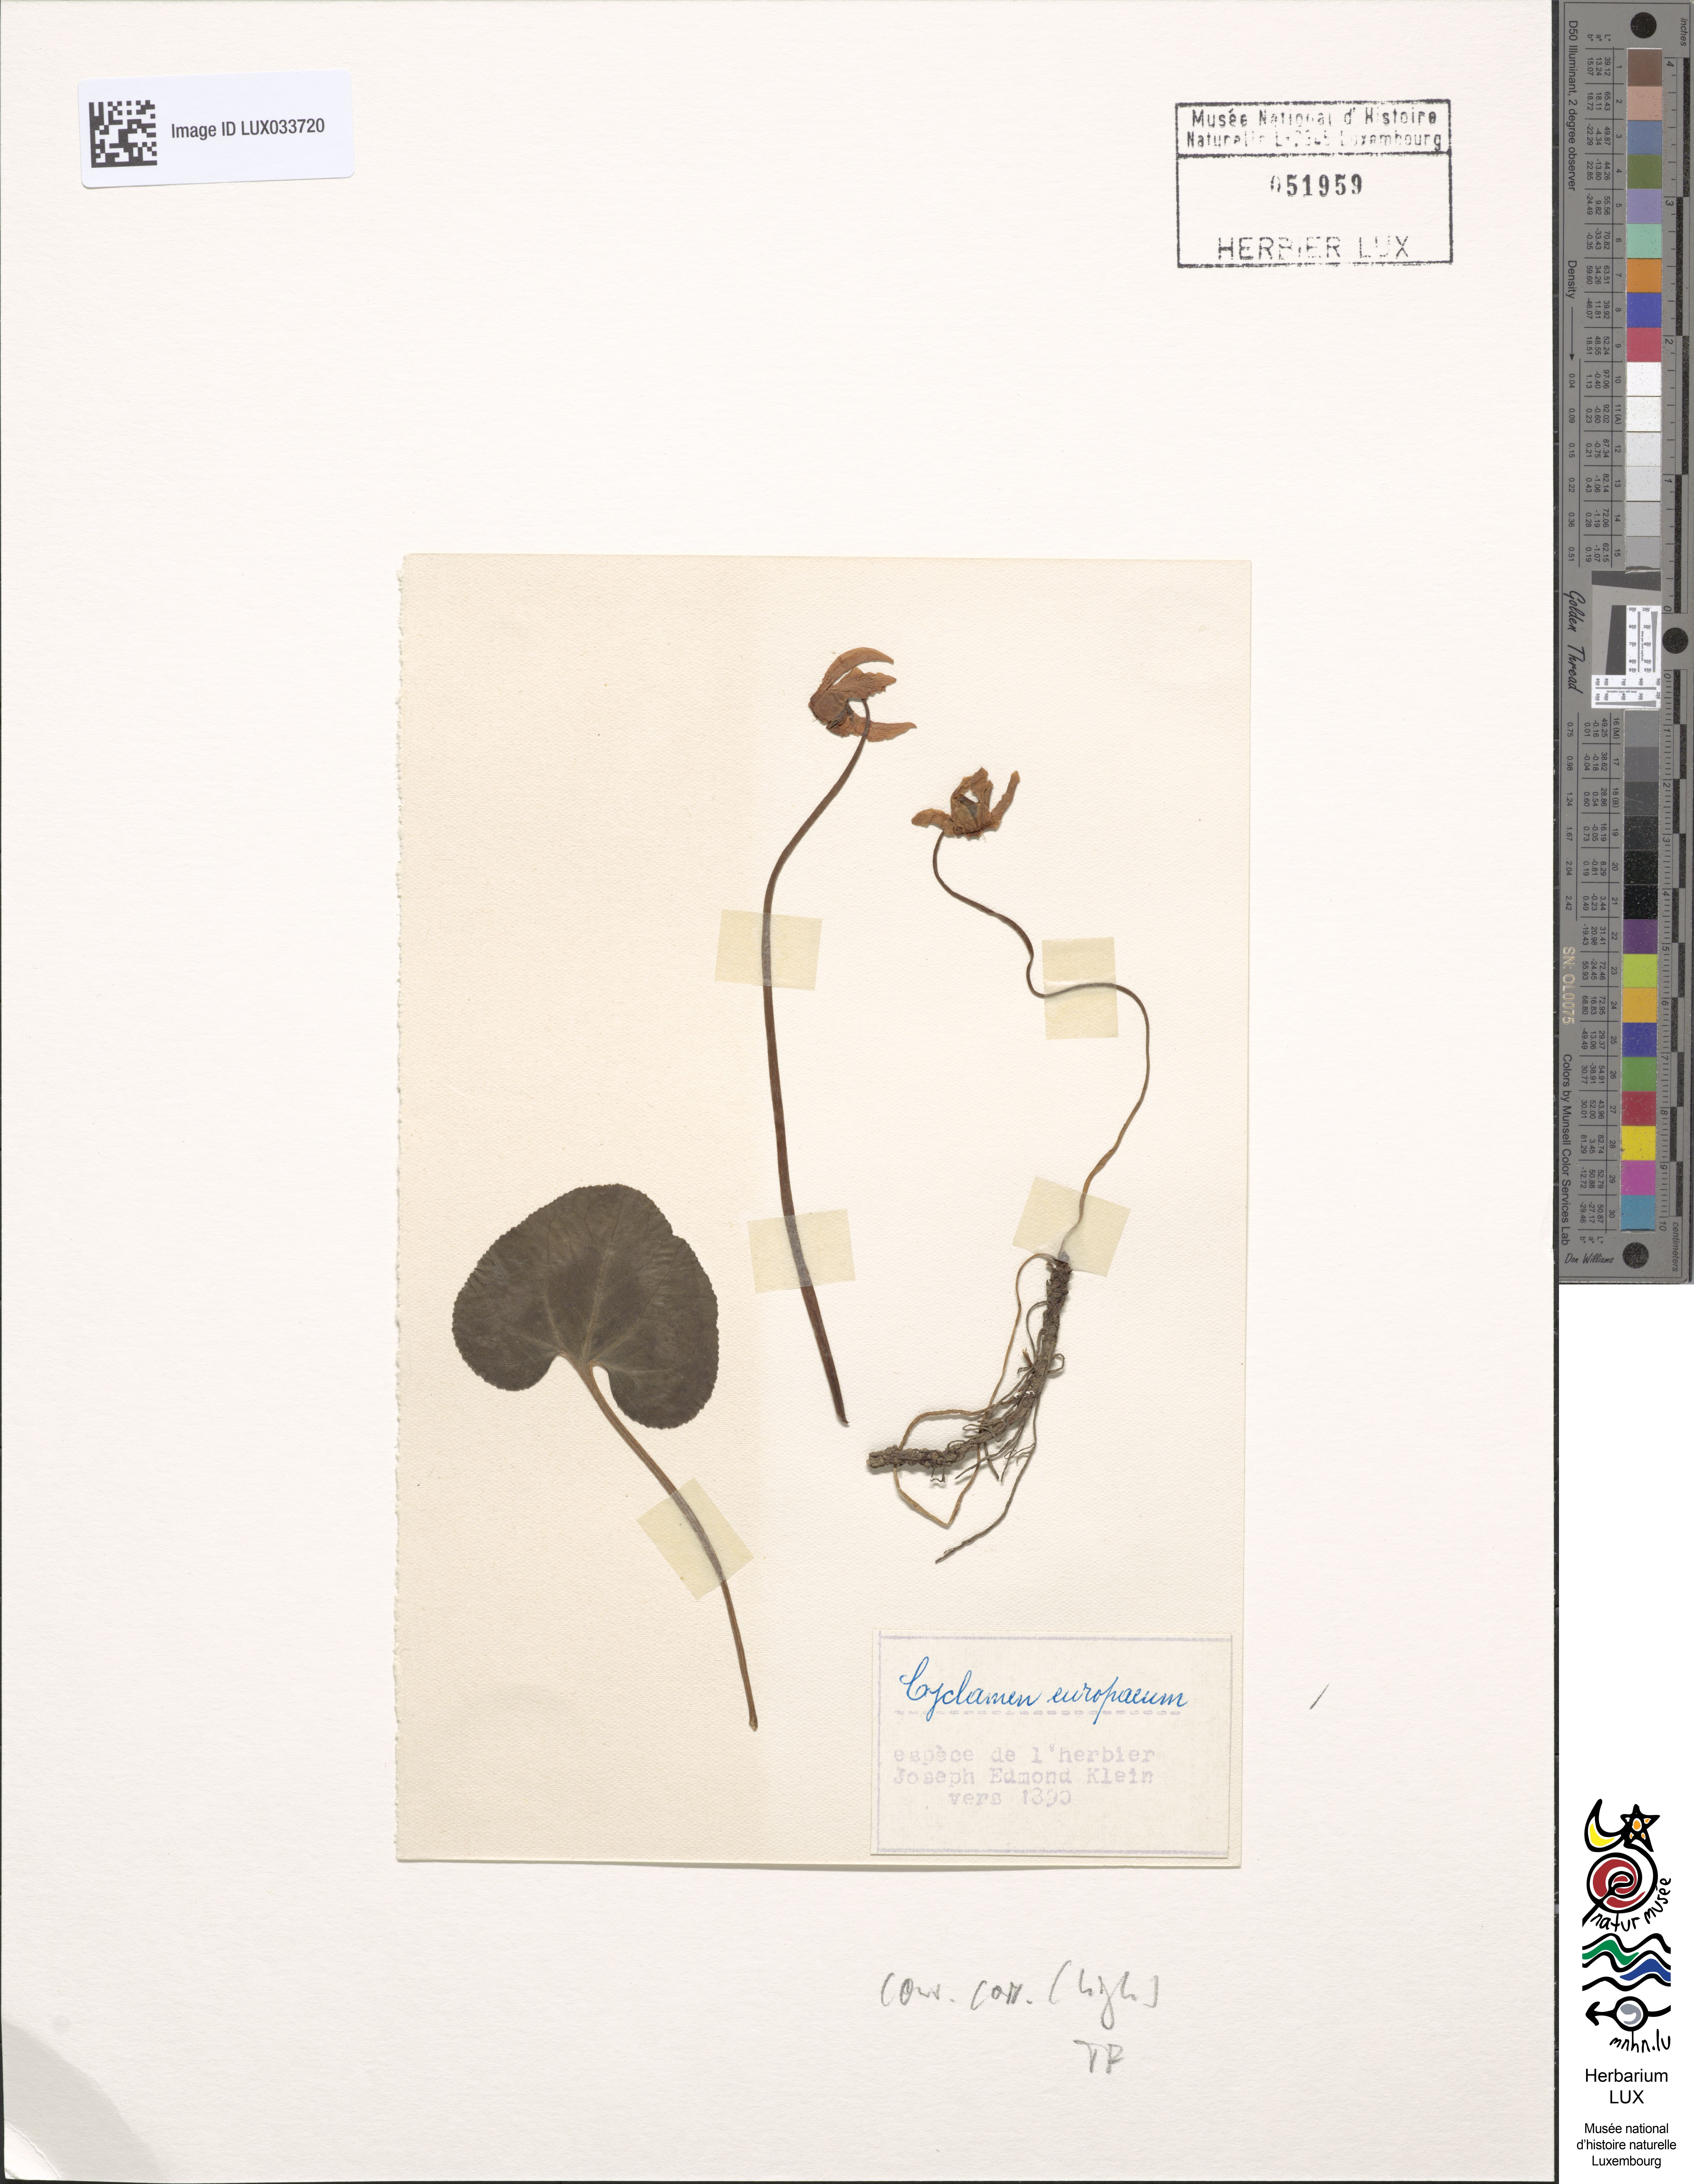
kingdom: Plantae
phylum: Tracheophyta
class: Magnoliopsida
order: Ericales
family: Primulaceae
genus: Cyclamen
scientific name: Cyclamen purpurascens
